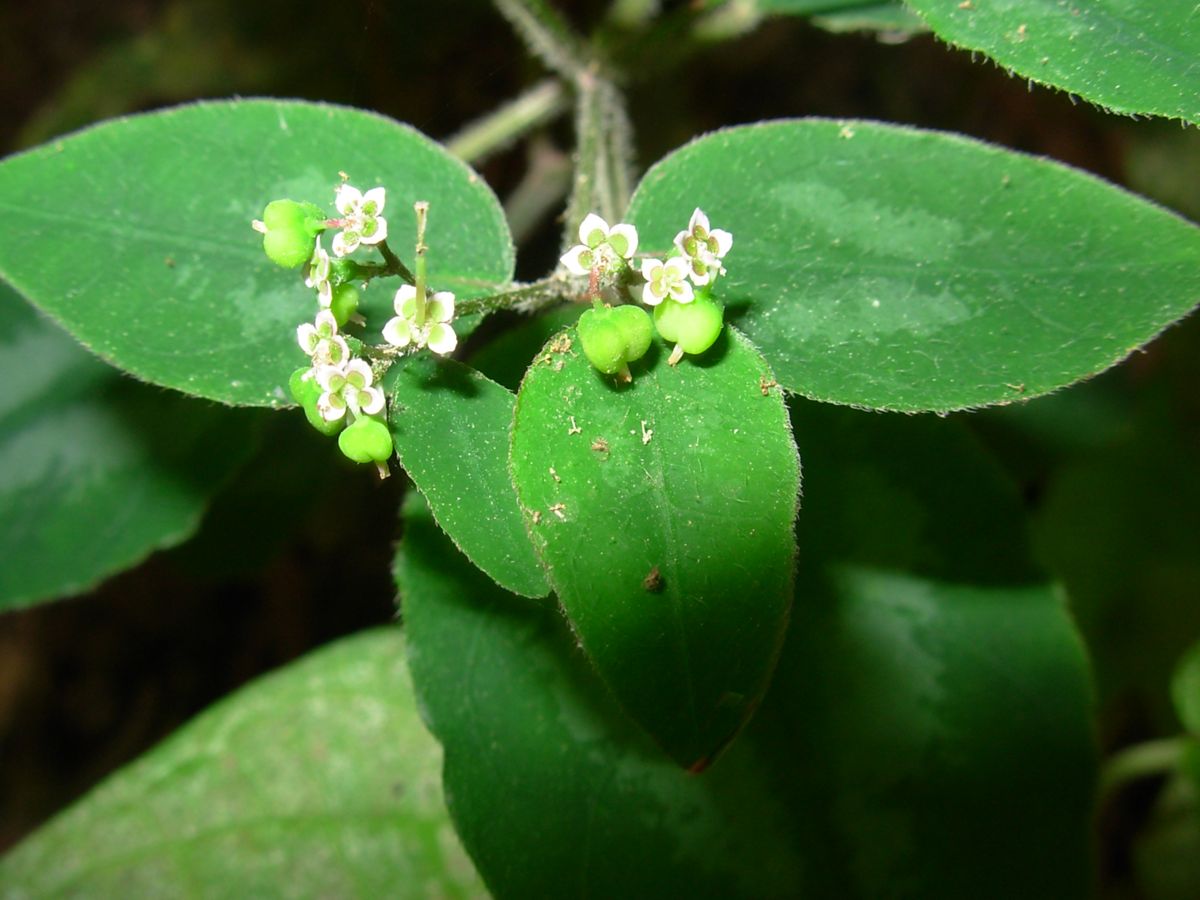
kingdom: Plantae
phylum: Tracheophyta
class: Magnoliopsida
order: Malpighiales
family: Euphorbiaceae
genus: Euphorbia
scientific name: Euphorbia
